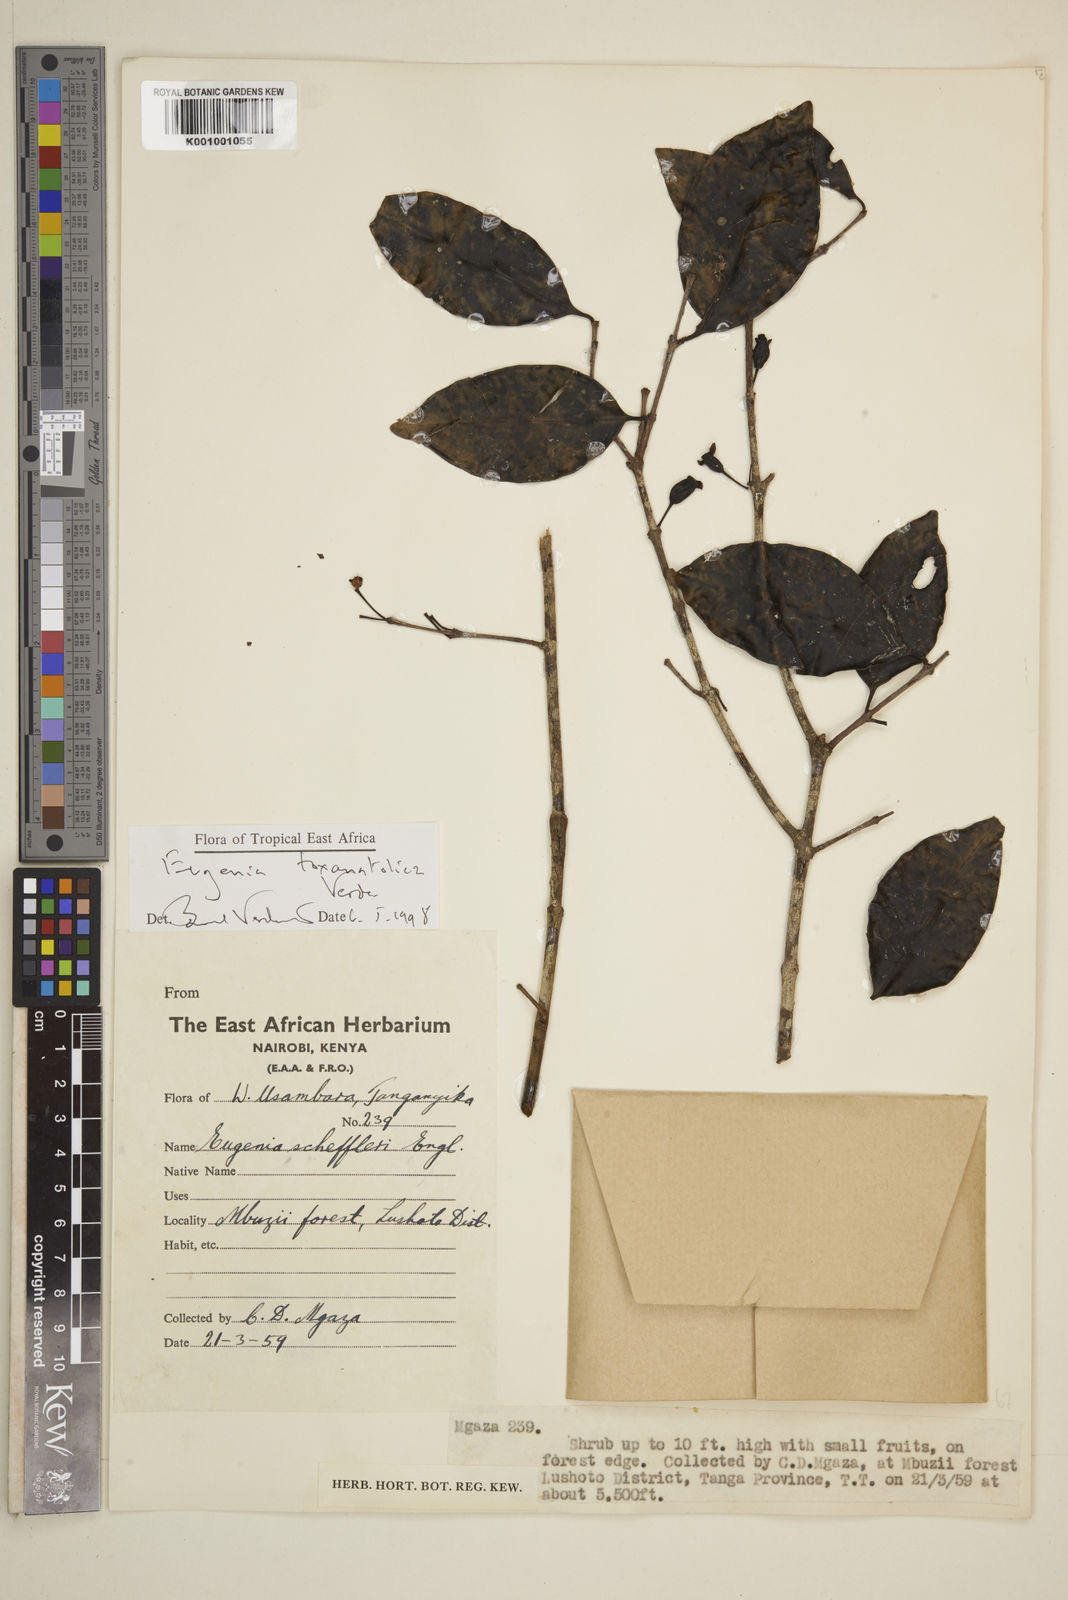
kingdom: Plantae
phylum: Tracheophyta
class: Magnoliopsida
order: Myrtales
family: Myrtaceae
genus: Eugenia
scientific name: Eugenia toxanatolica
